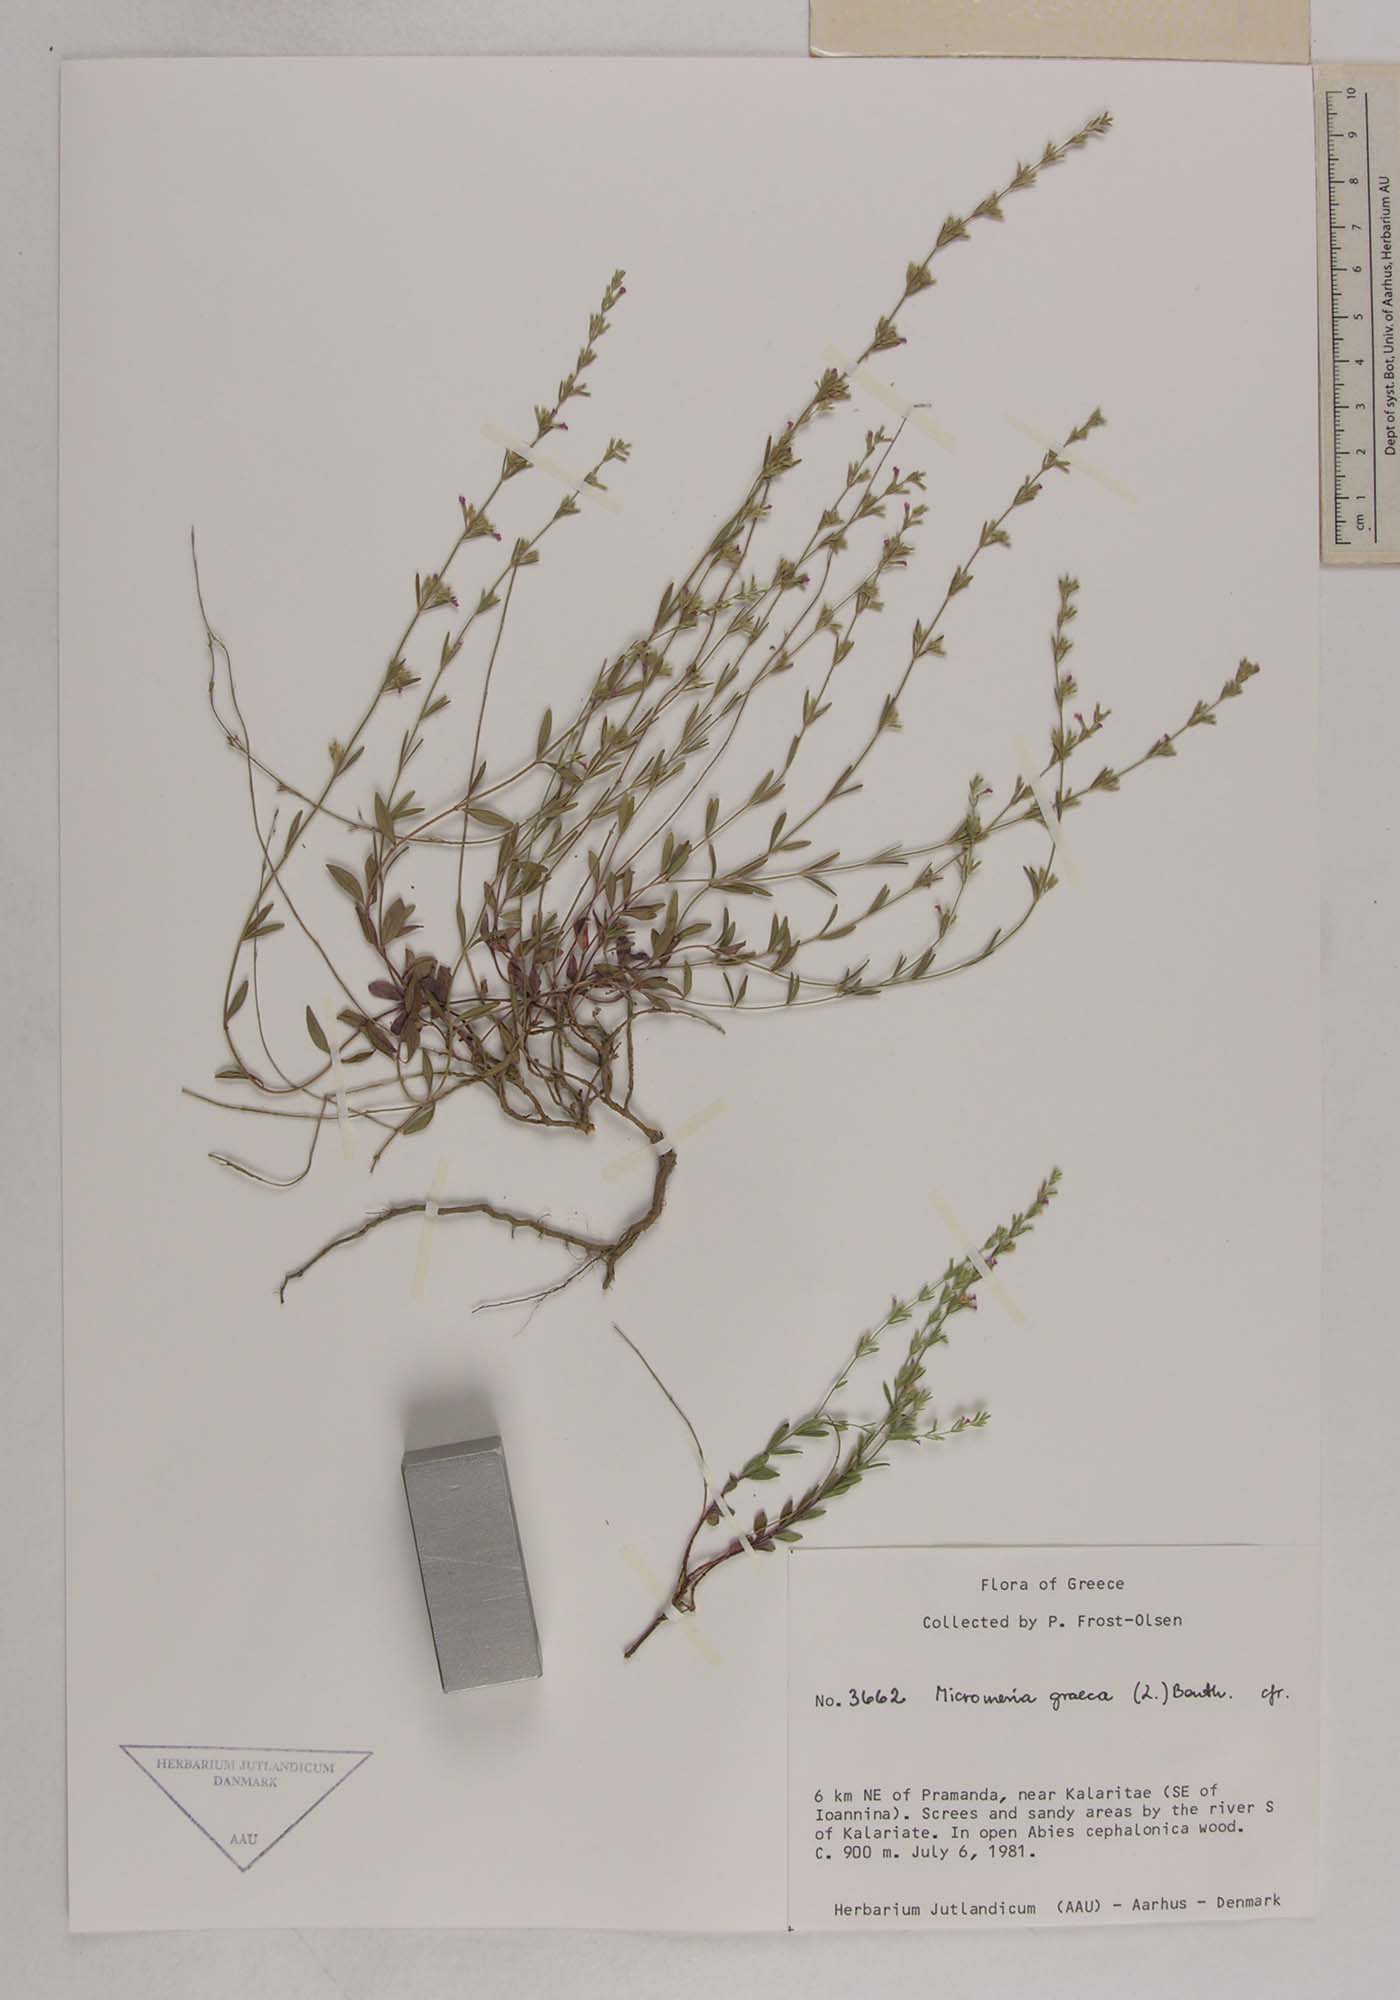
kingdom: Plantae
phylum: Tracheophyta
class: Magnoliopsida
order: Lamiales
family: Lamiaceae
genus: Micromeria
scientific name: Micromeria graeca
